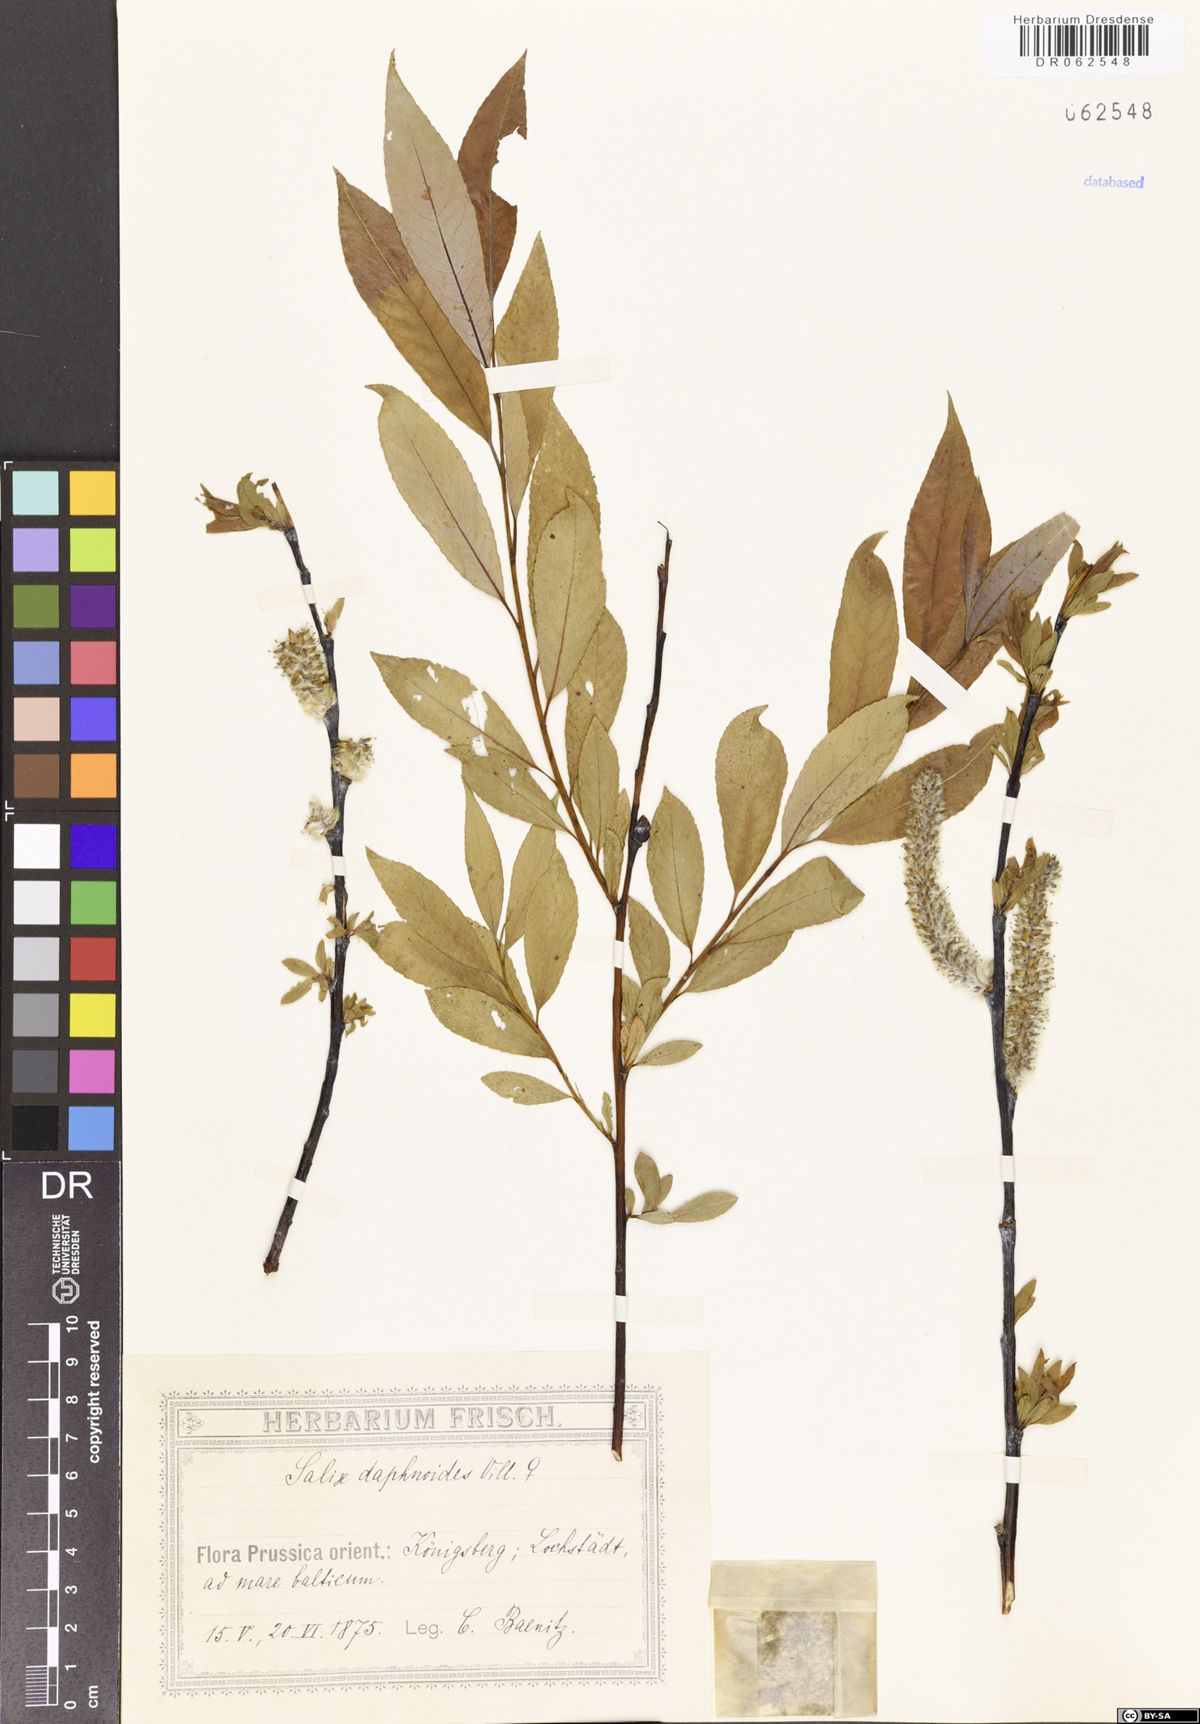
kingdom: Plantae
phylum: Tracheophyta
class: Magnoliopsida
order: Malpighiales
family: Salicaceae
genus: Salix
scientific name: Salix daphnoides
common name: European violet-willow
